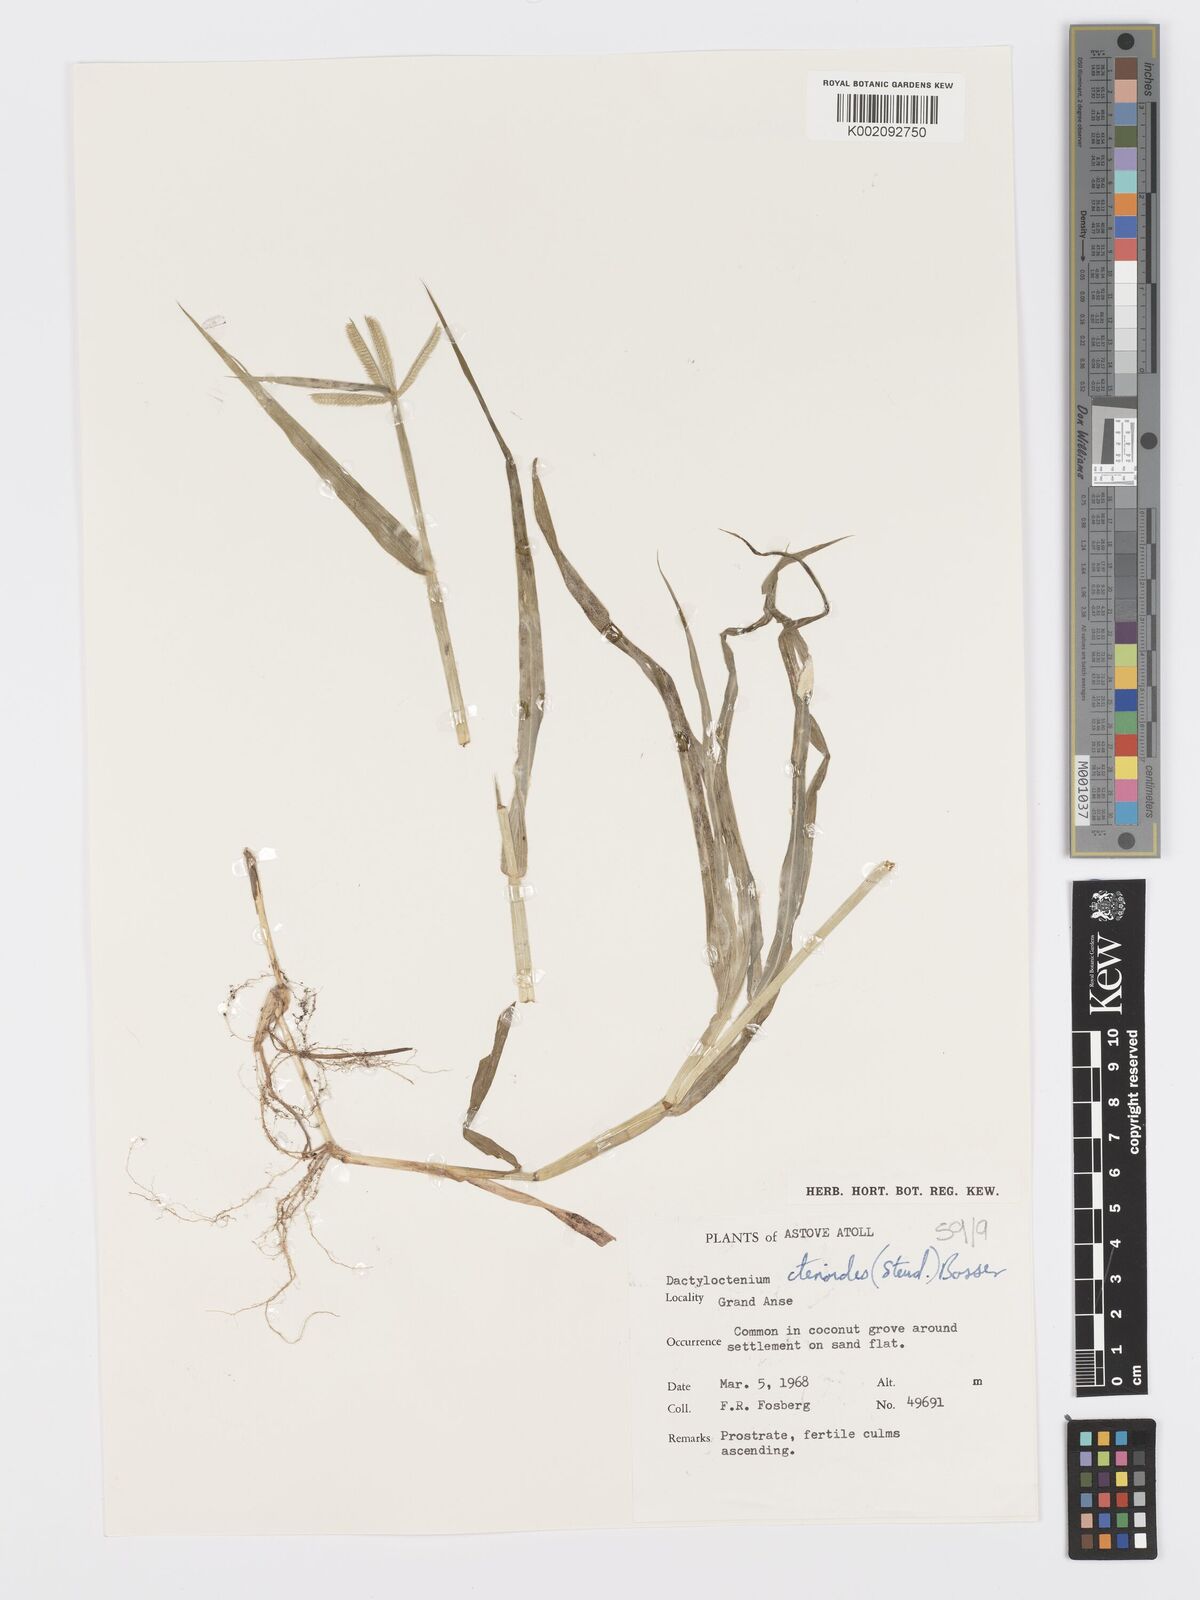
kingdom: Plantae
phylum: Tracheophyta
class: Liliopsida
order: Poales
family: Poaceae
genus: Dactyloctenium
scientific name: Dactyloctenium ctenoides
